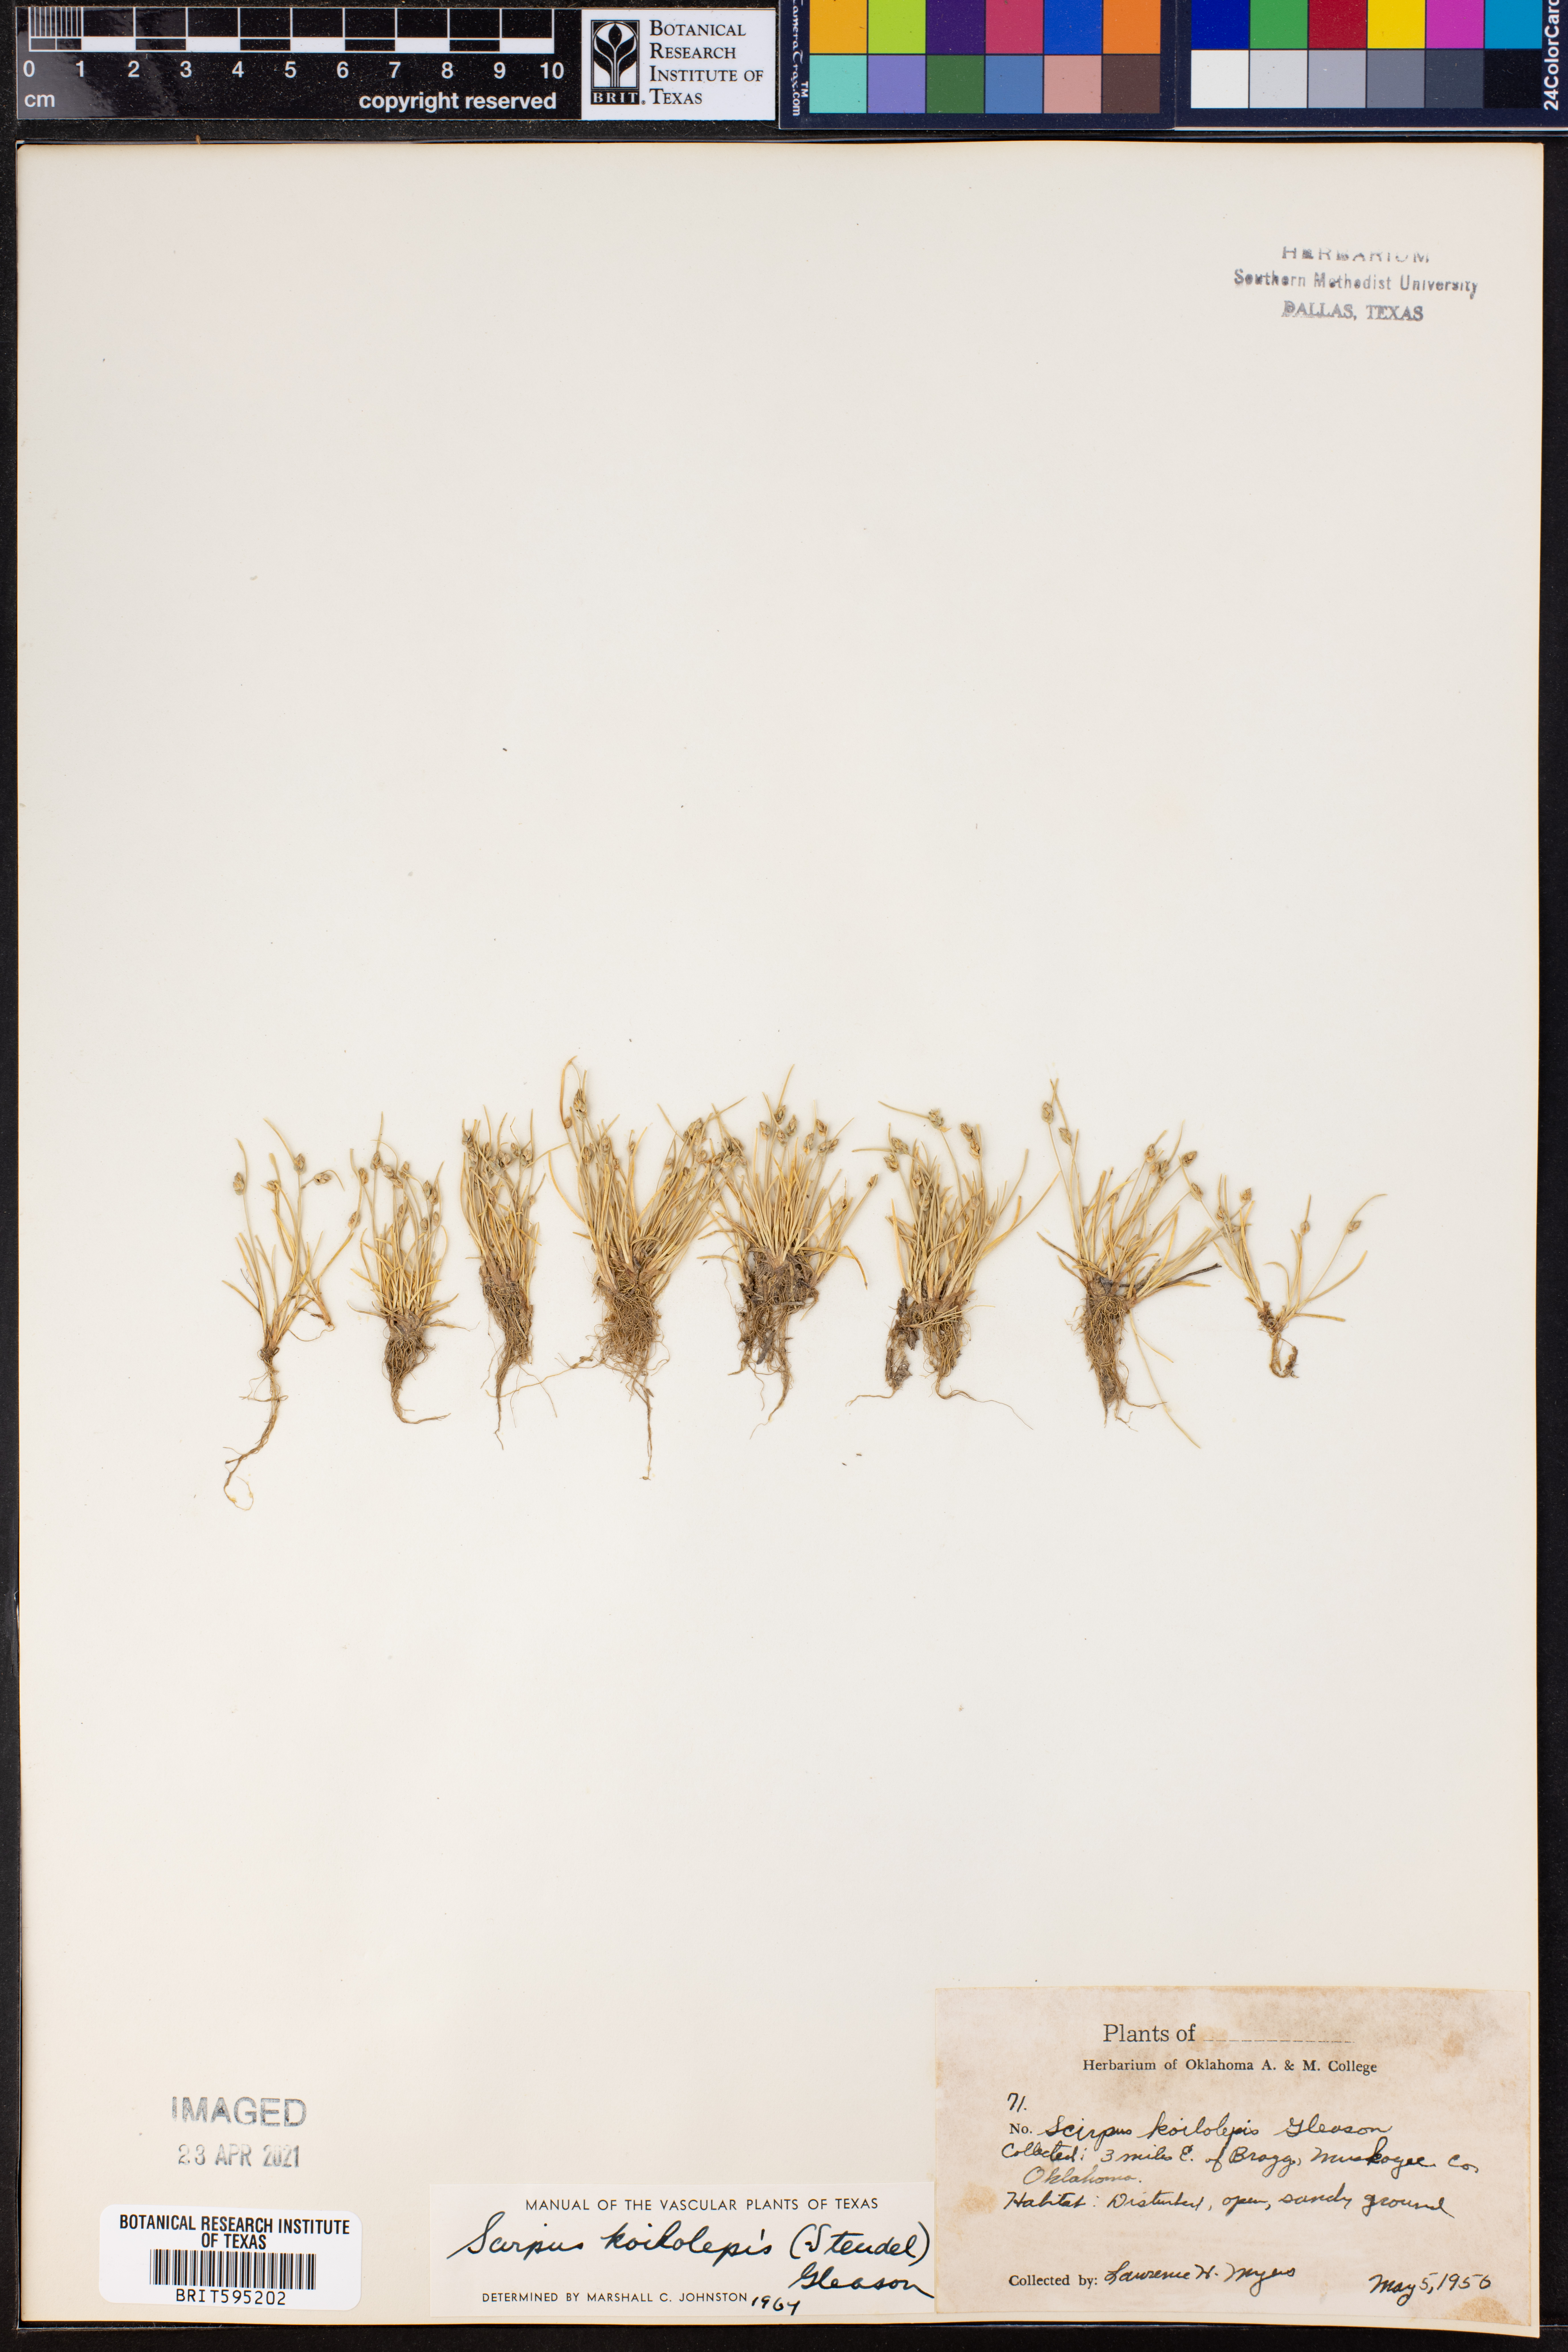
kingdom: Plantae
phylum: Tracheophyta
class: Liliopsida
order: Poales
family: Cyperaceae
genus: Isolepis
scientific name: Isolepis carinata
